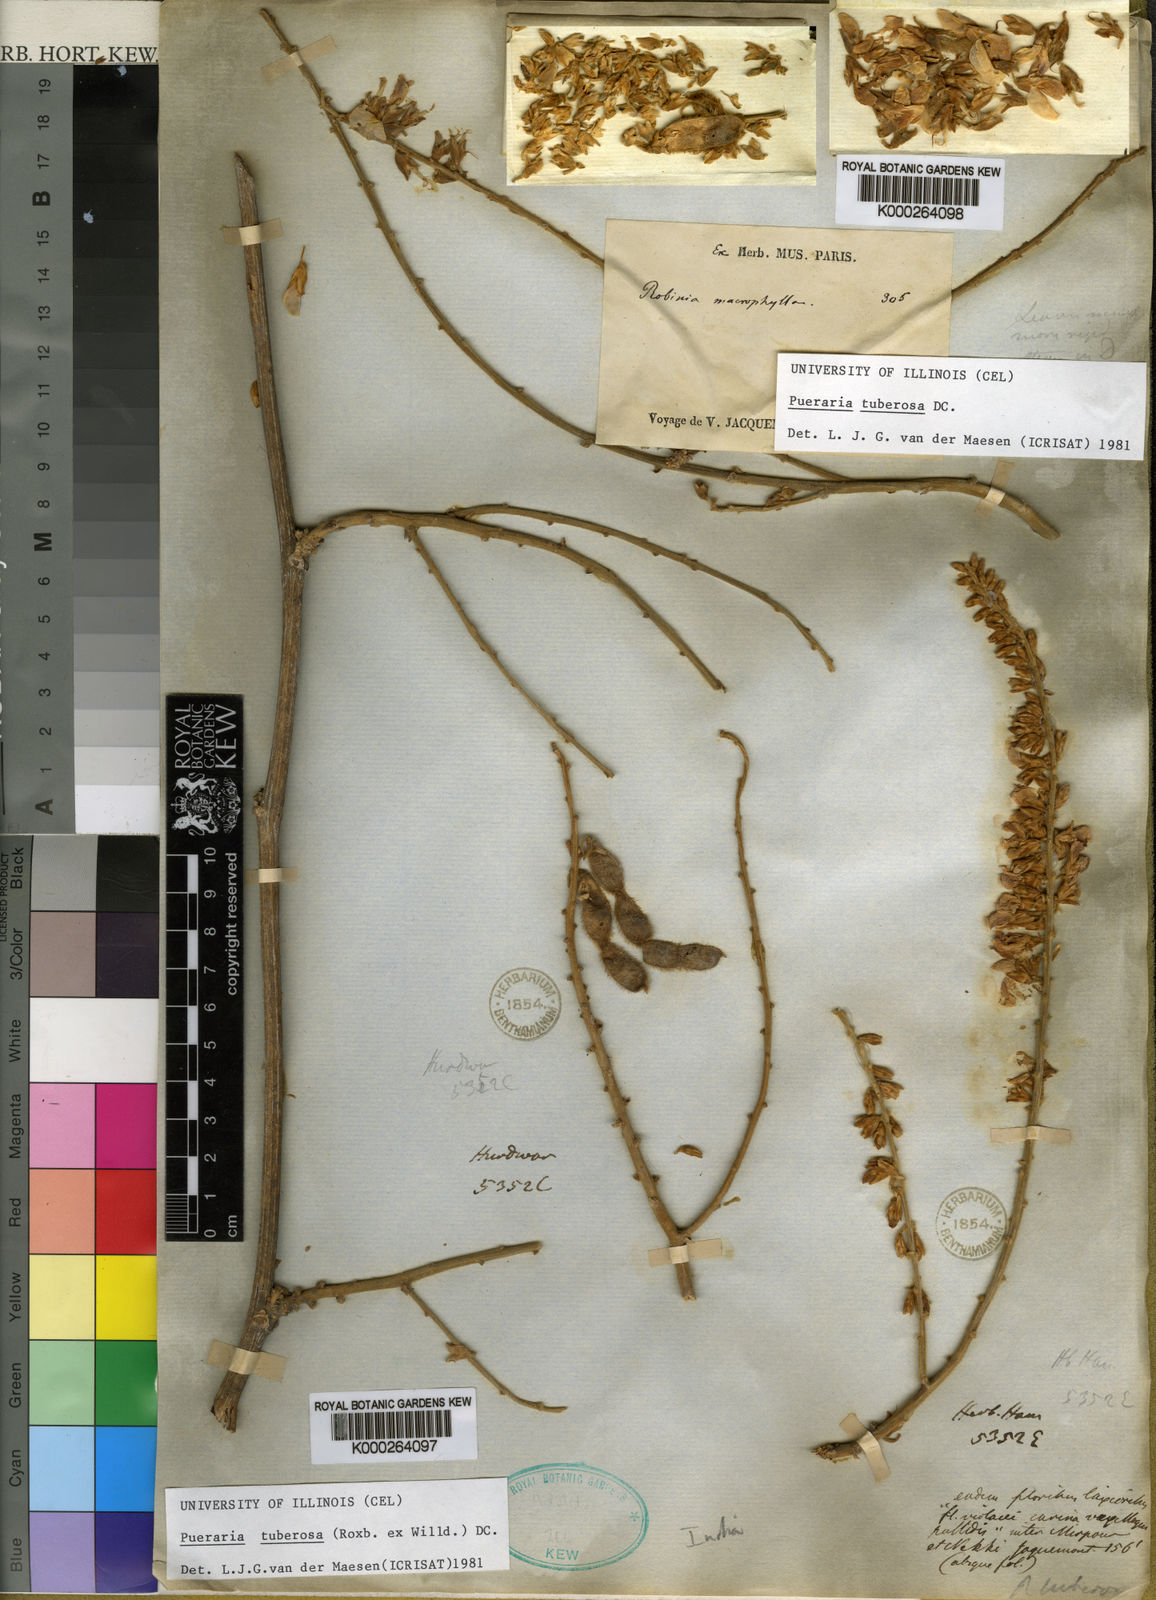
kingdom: Plantae
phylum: Tracheophyta
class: Magnoliopsida
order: Fabales
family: Fabaceae
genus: Pueraria
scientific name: Pueraria tuberosa
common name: Nepalese kudzu
